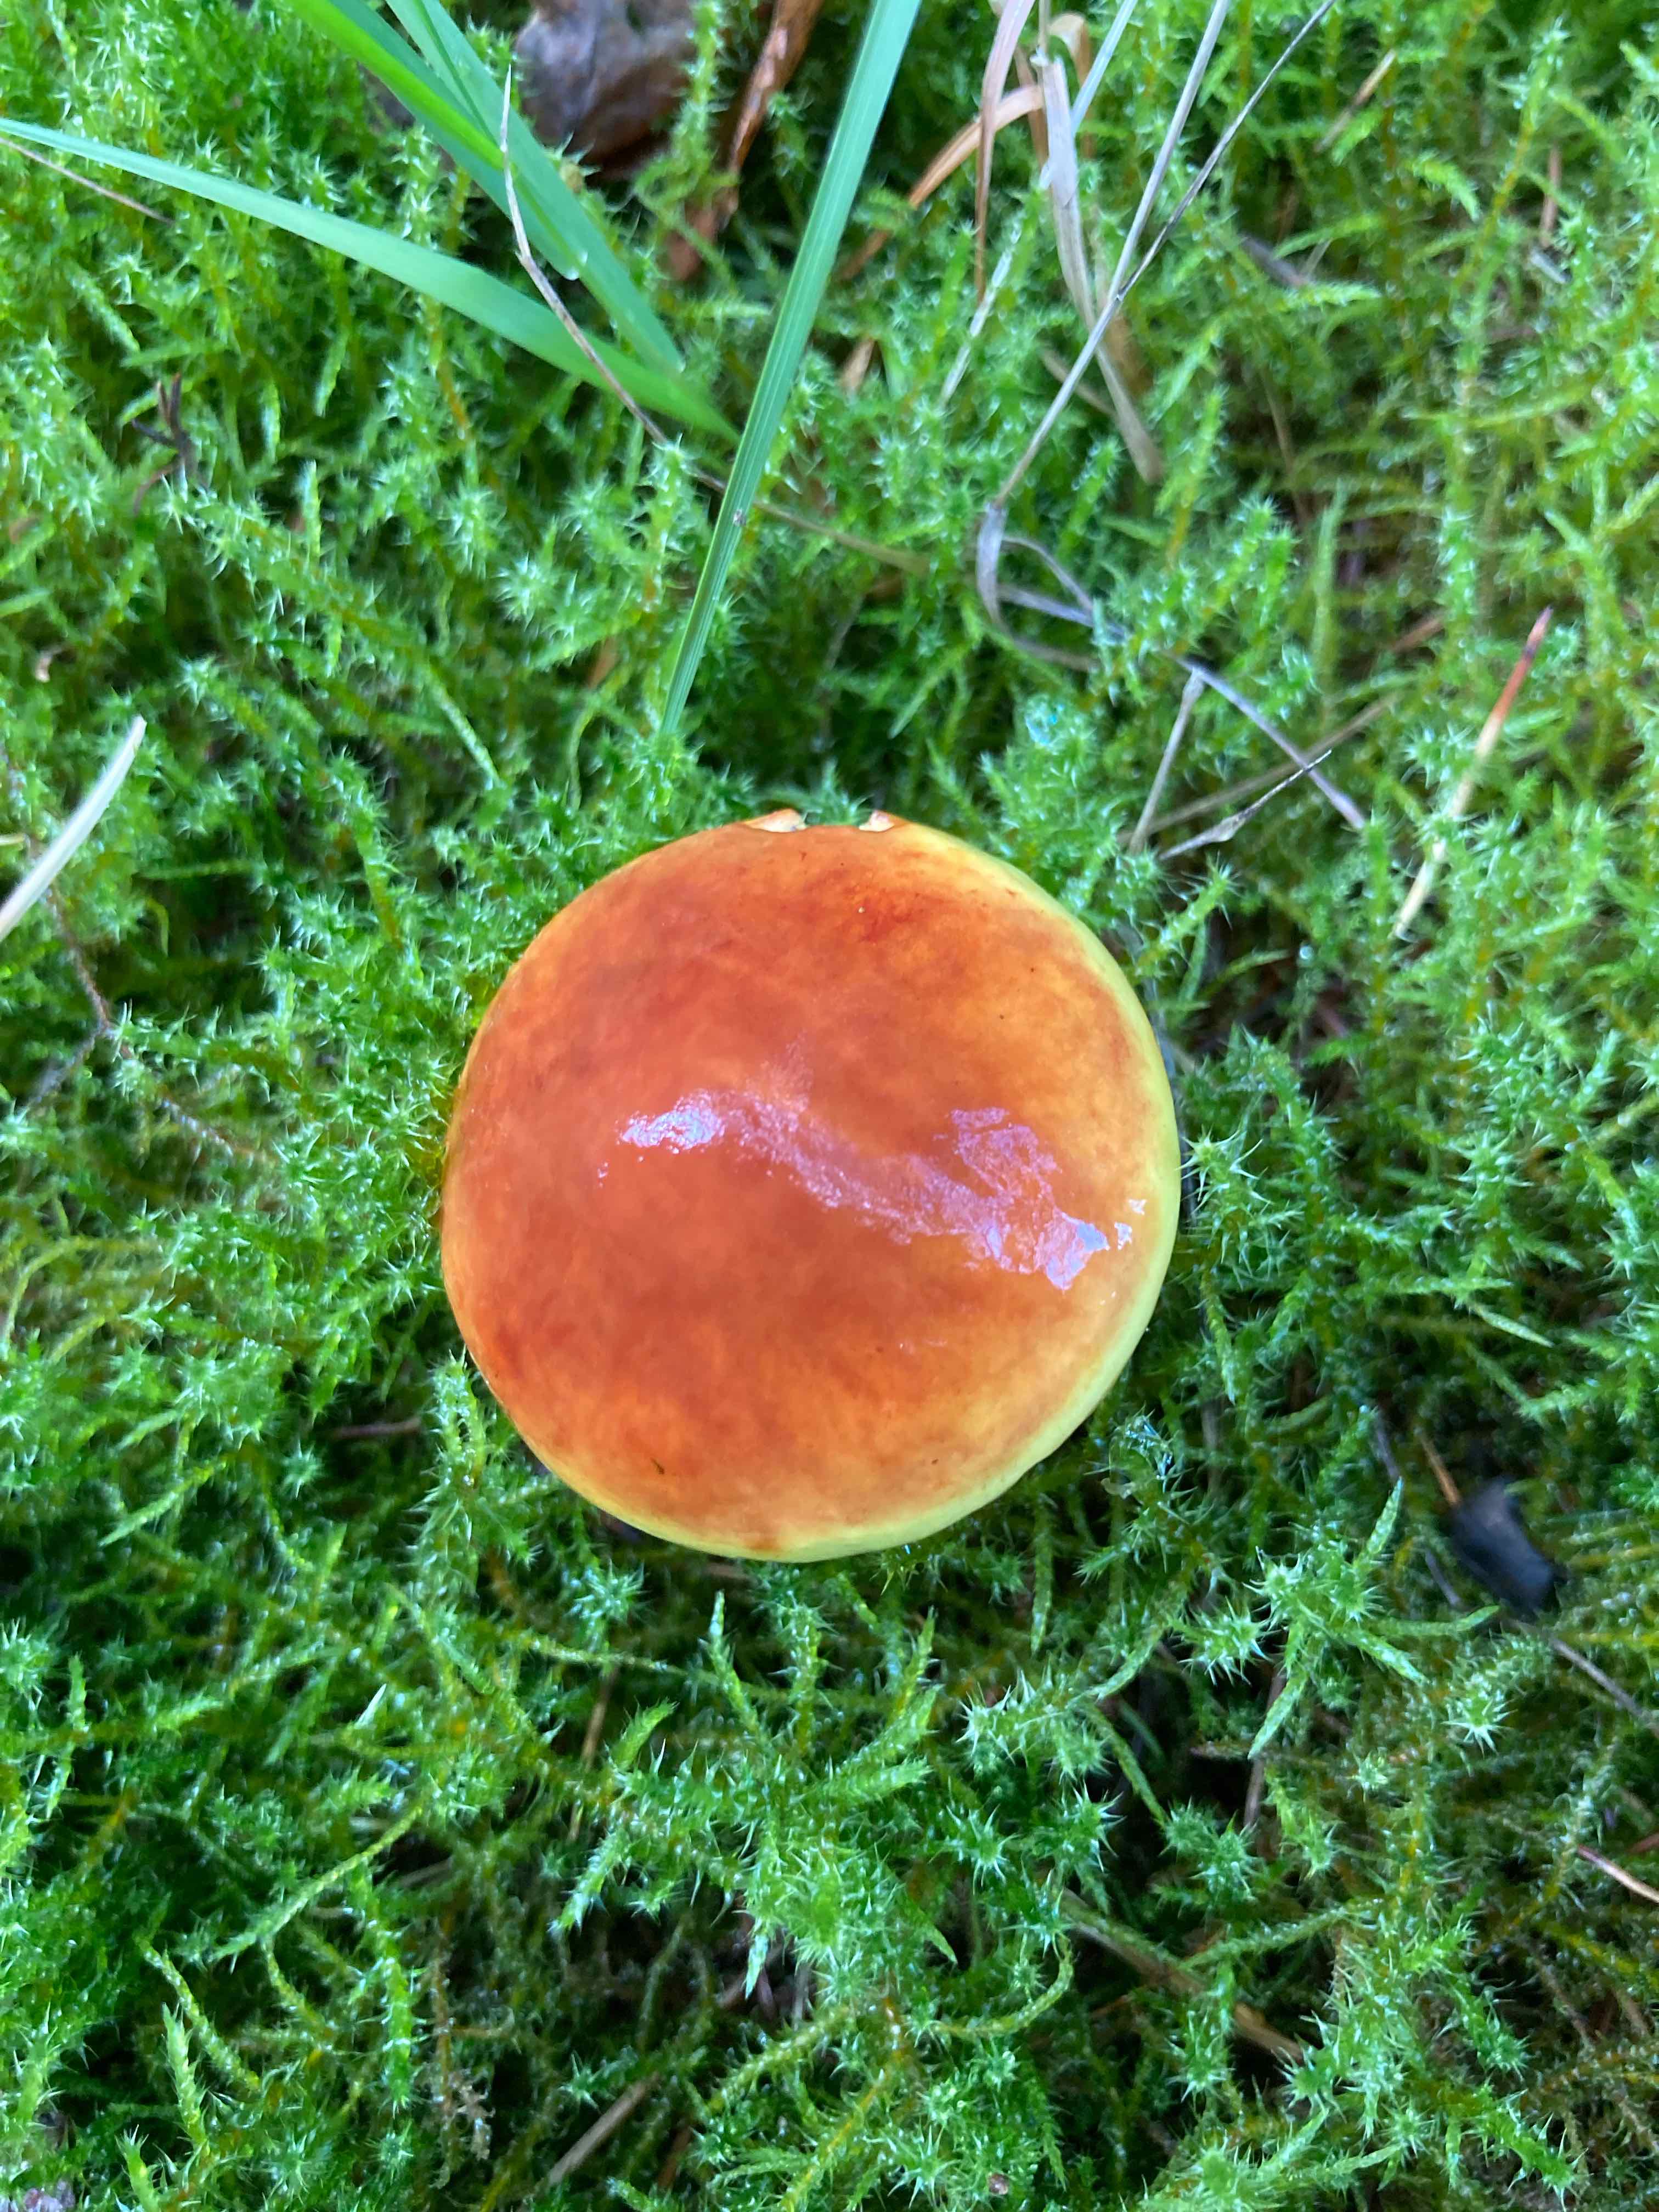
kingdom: Fungi
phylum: Basidiomycota
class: Agaricomycetes
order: Boletales
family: Suillaceae
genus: Suillus
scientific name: Suillus grevillei
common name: lærke-slimrørhat
